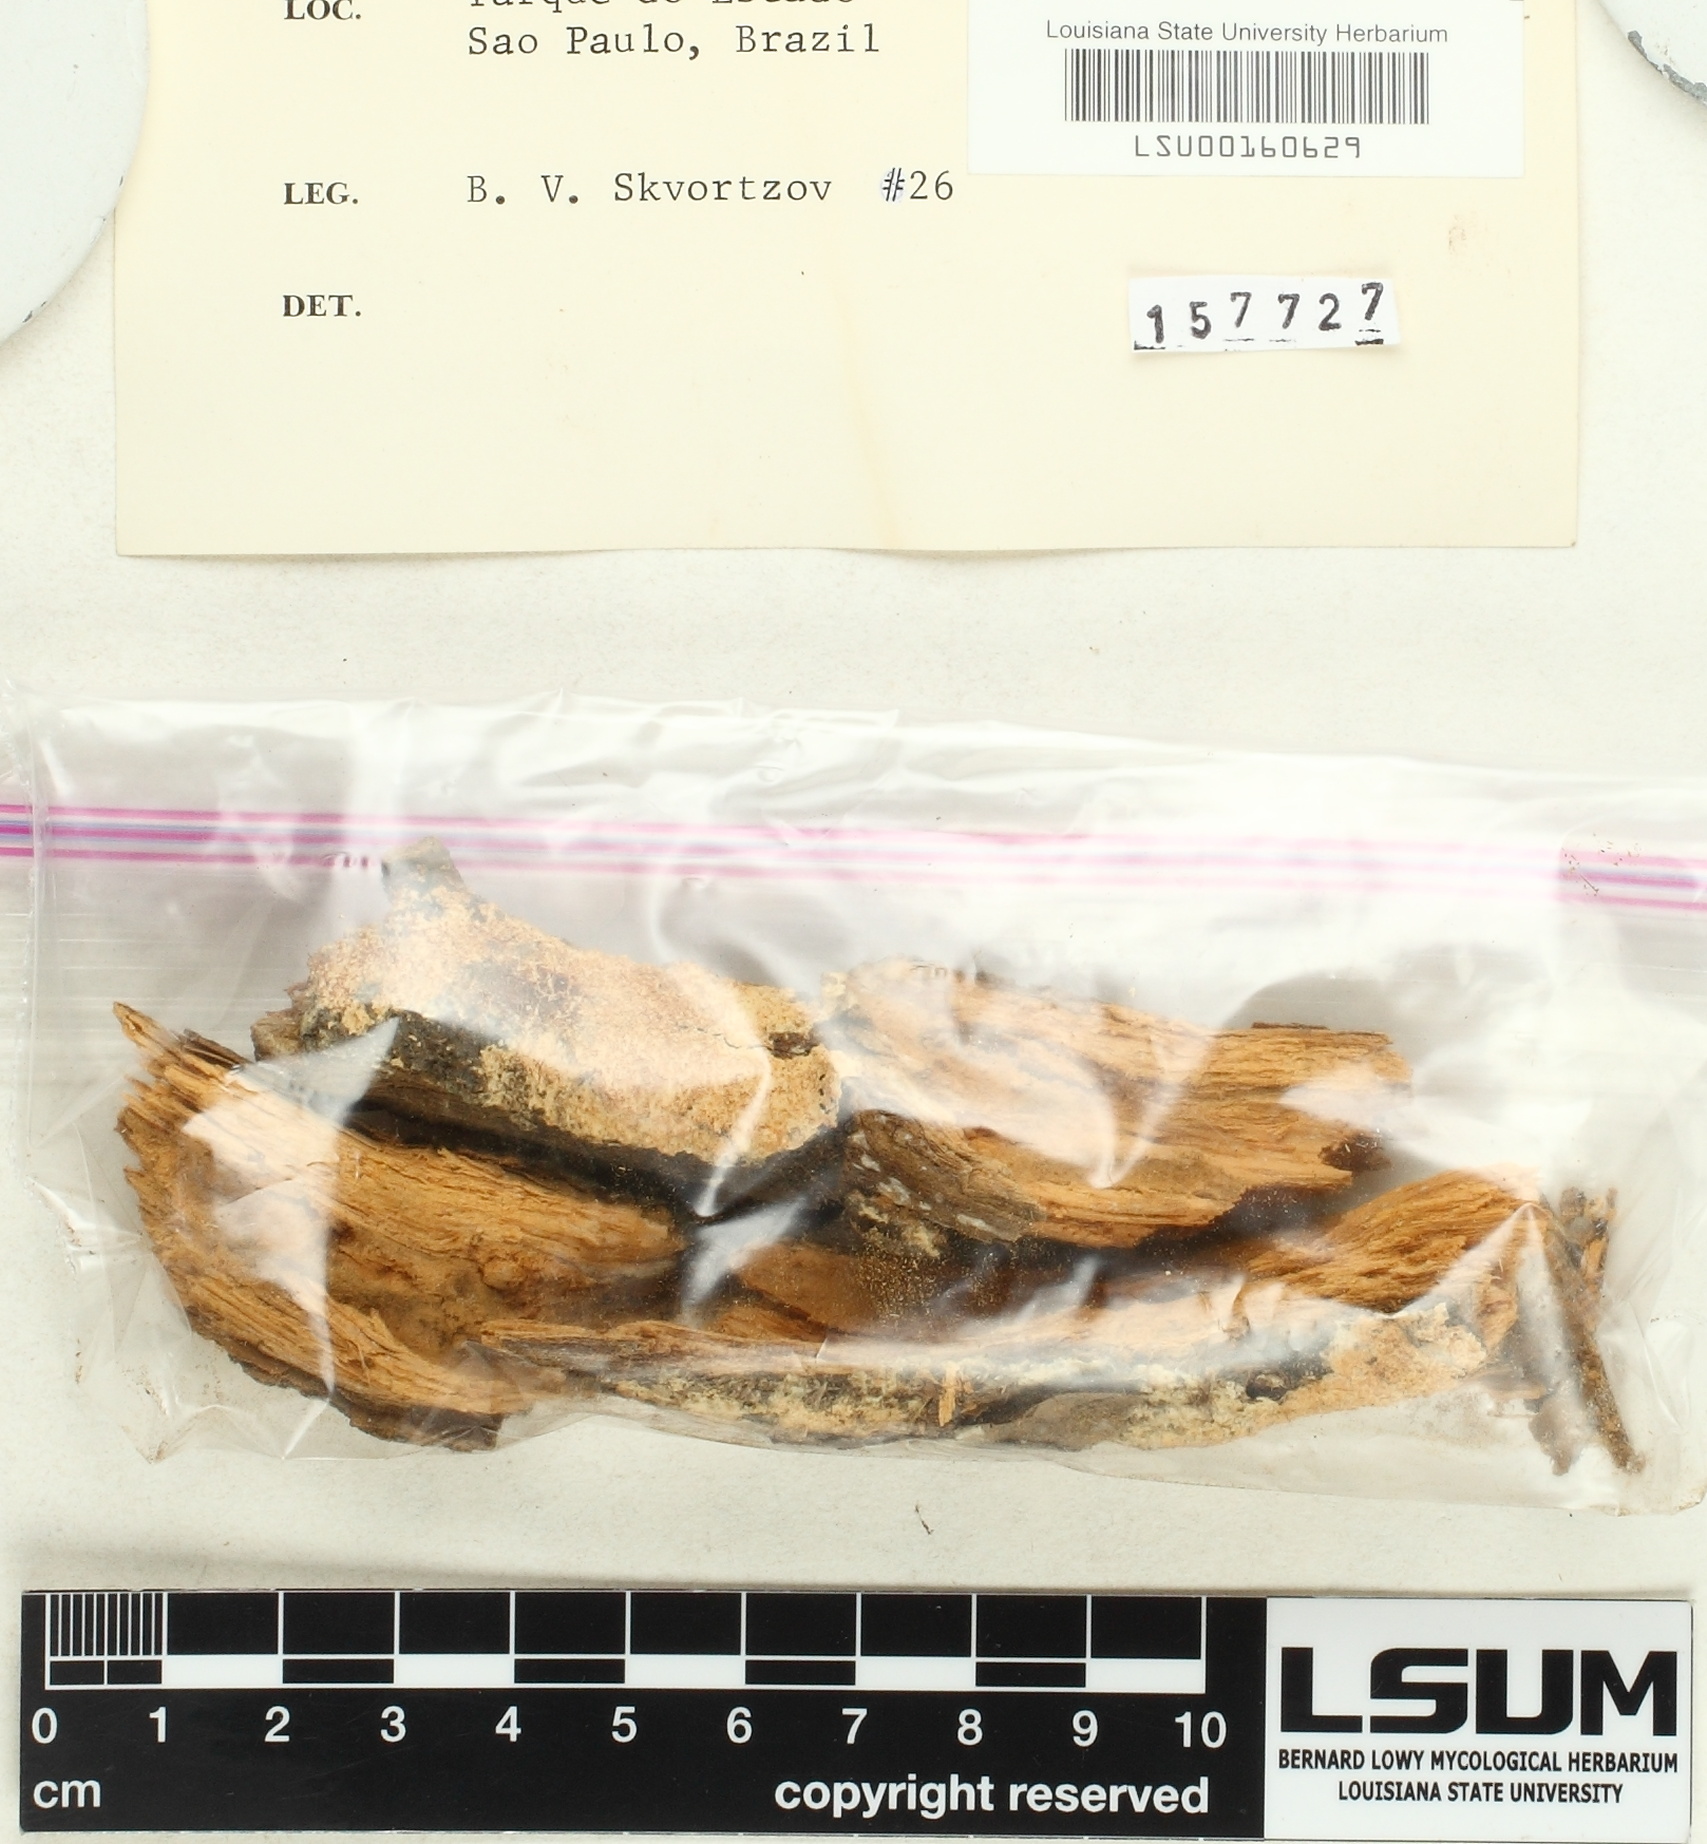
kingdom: Fungi
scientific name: Fungi
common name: Fungi
